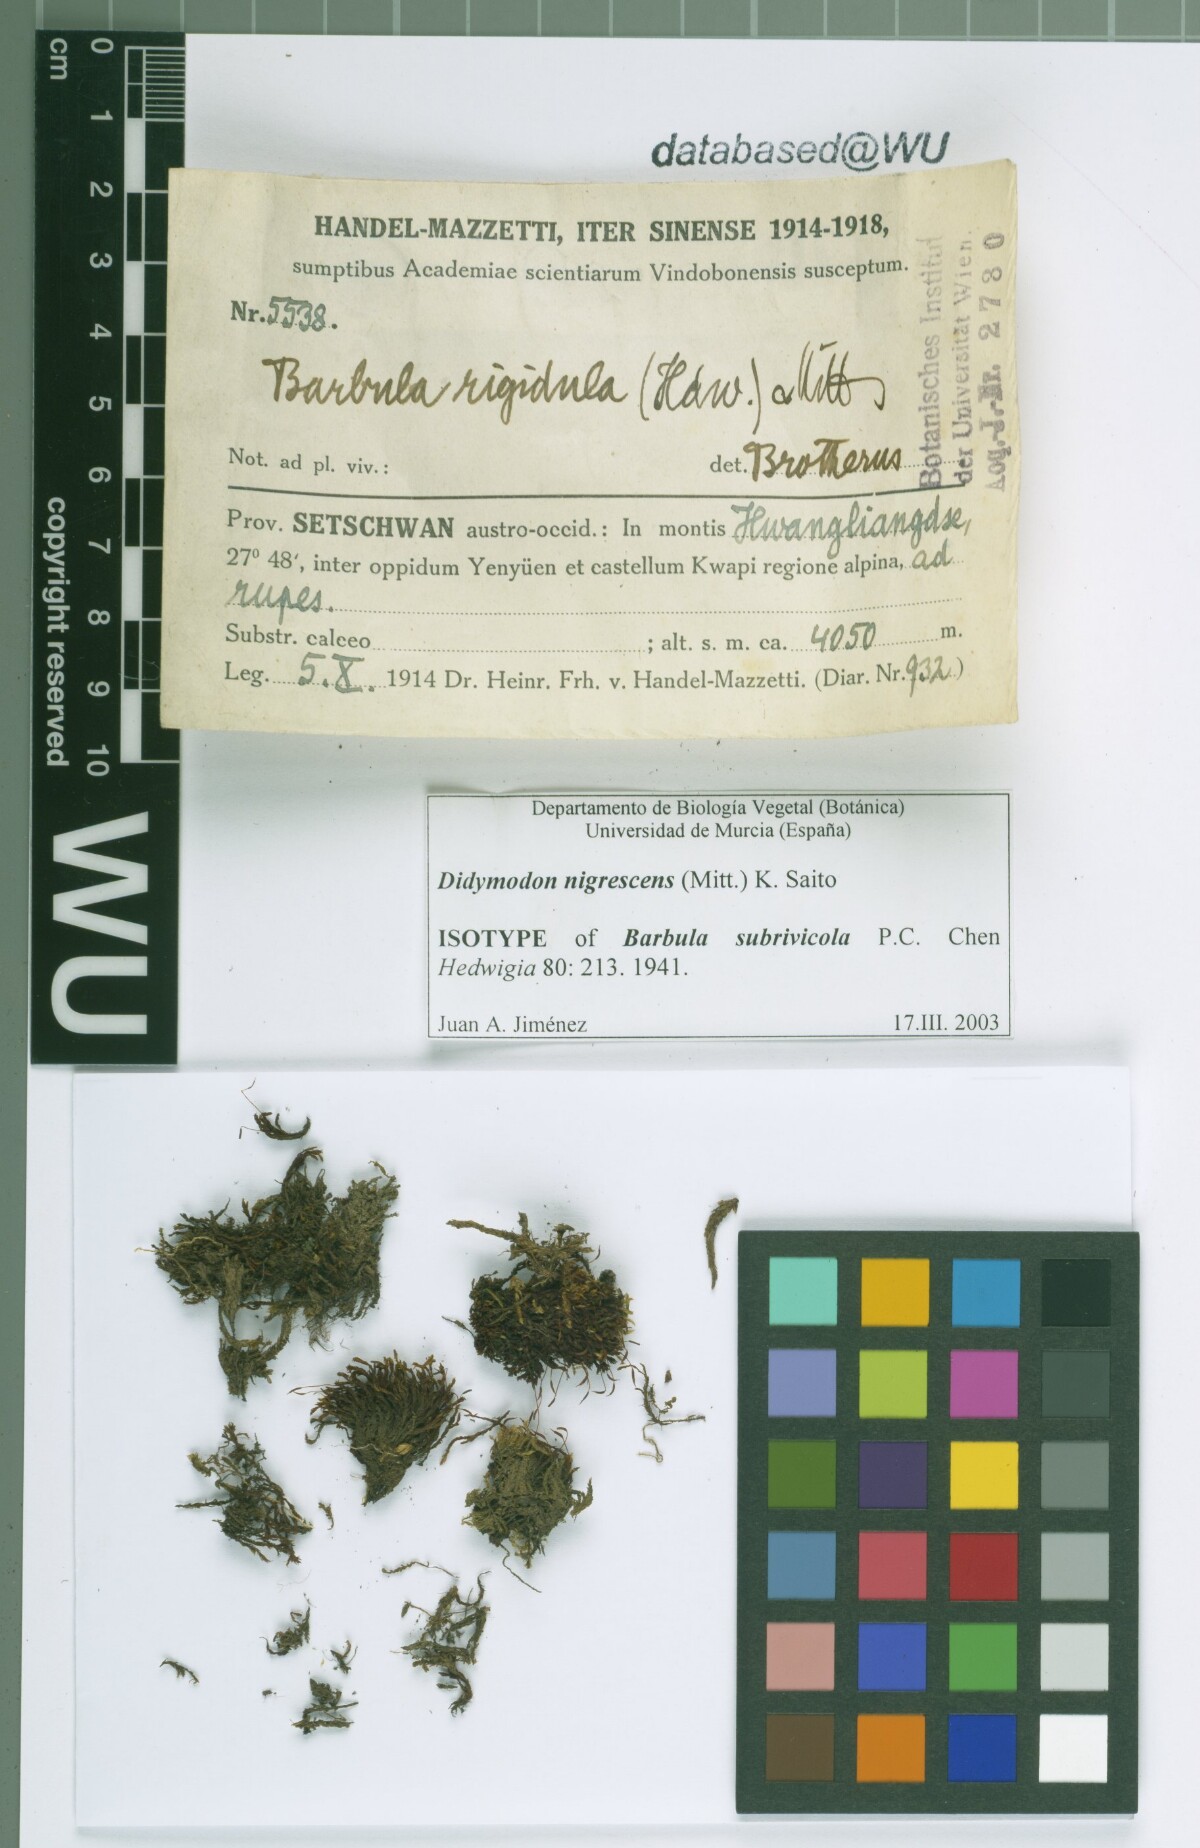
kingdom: Plantae
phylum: Bryophyta
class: Bryopsida
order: Pottiales
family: Pottiaceae
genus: Didymodon
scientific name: Didymodon nigrescens
